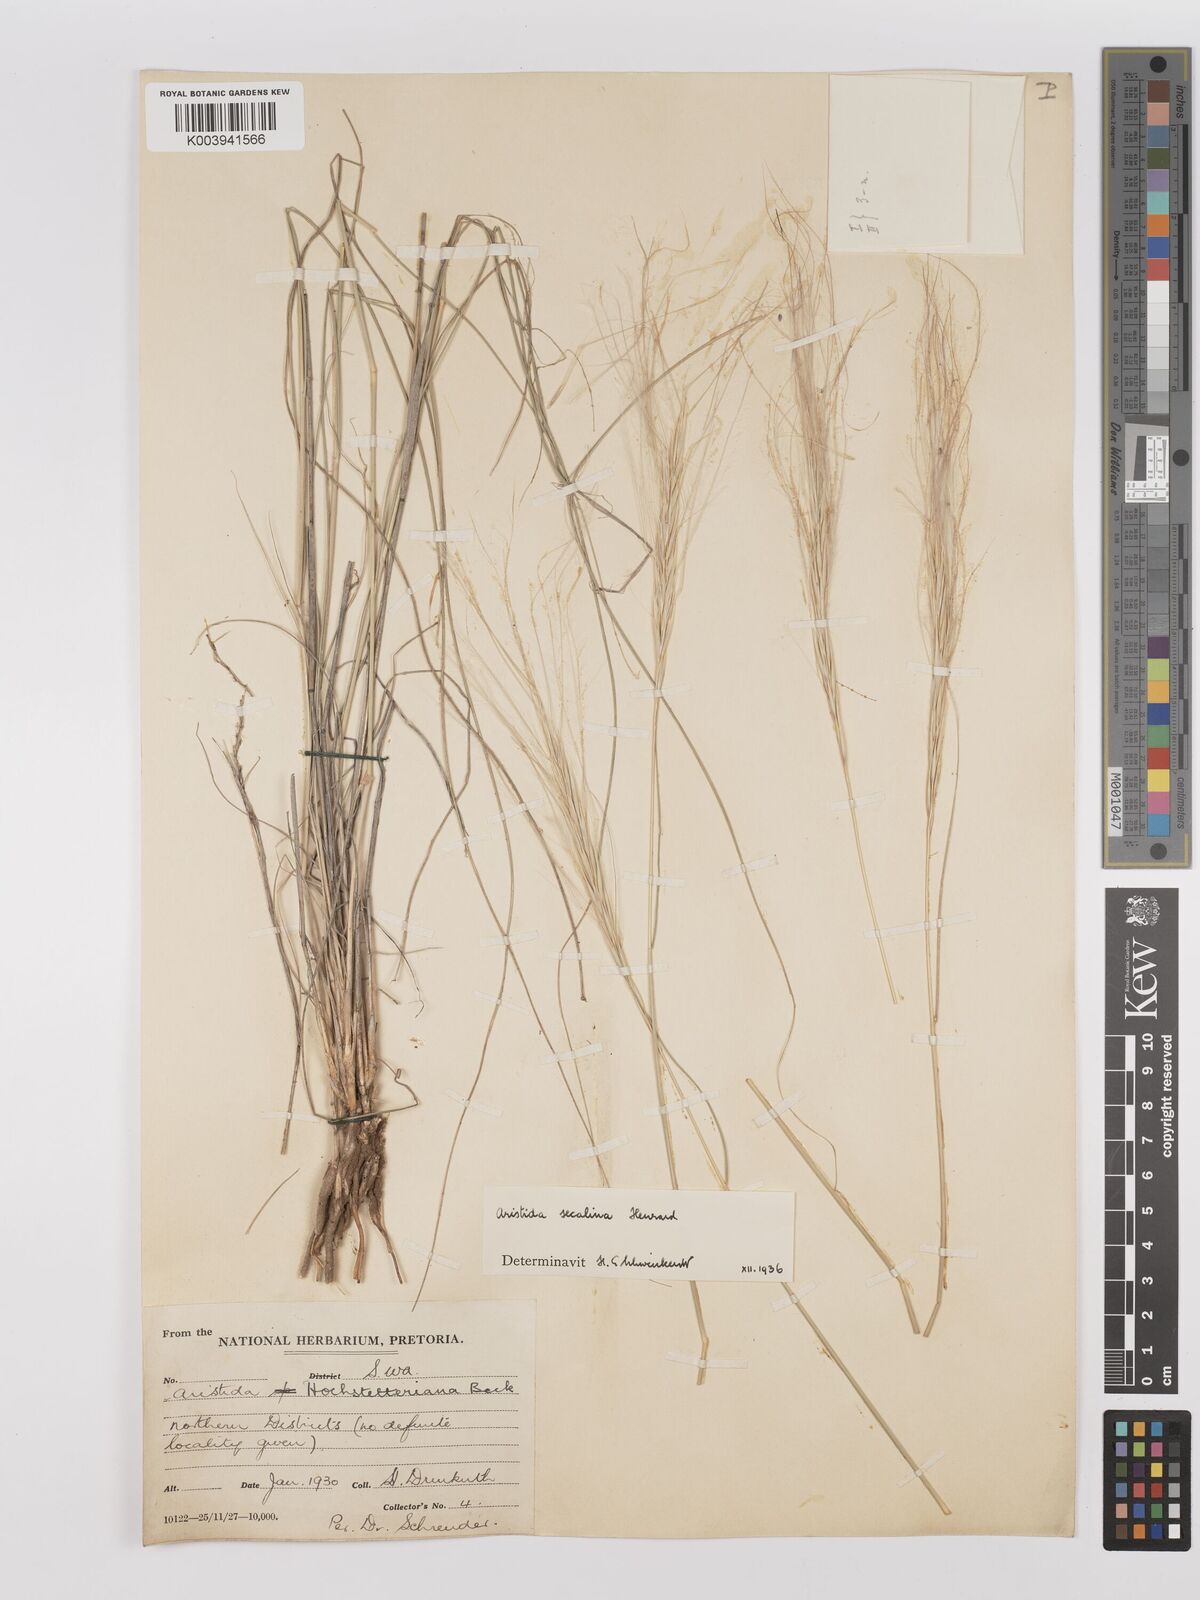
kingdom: Plantae
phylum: Tracheophyta
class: Liliopsida
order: Poales
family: Poaceae
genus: Stipagrostis
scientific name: Stipagrostis hochstetteriana
